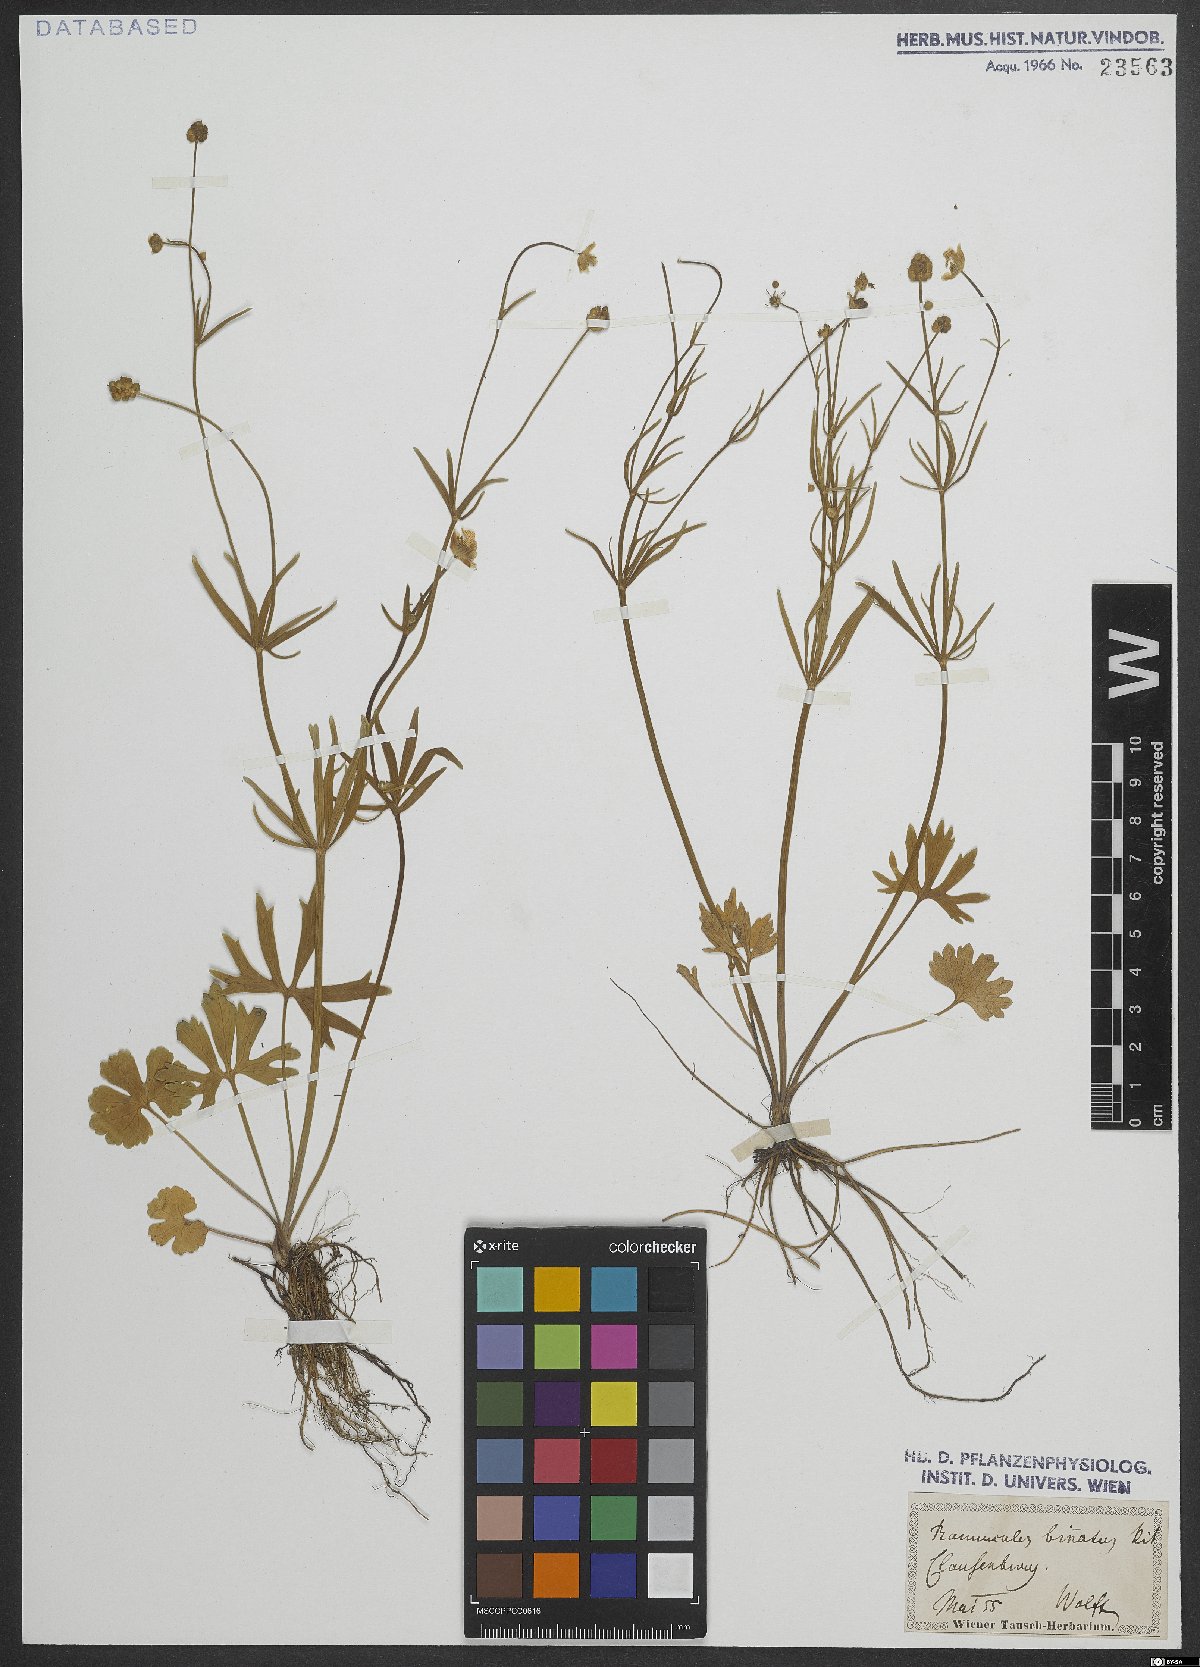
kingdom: Plantae
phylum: Tracheophyta
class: Magnoliopsida
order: Ranunculales
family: Ranunculaceae
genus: Ranunculus
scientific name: Ranunculus binatus
